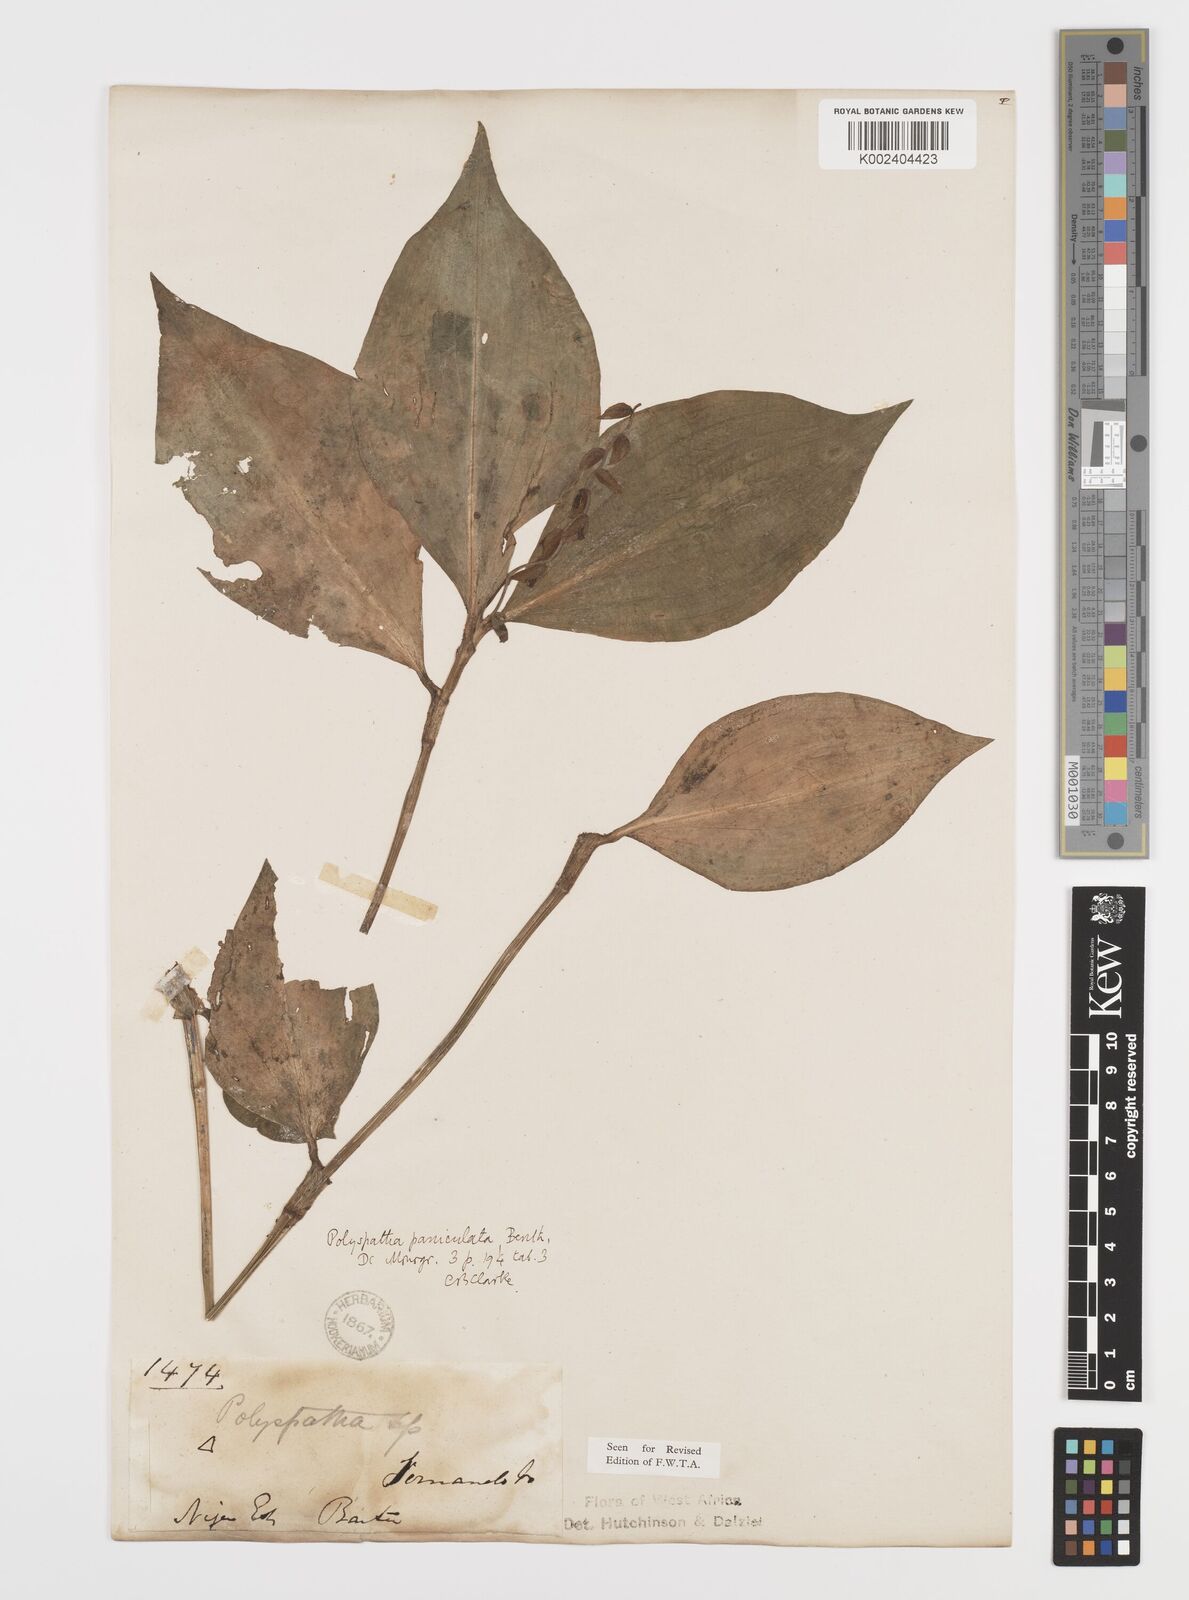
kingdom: Plantae
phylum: Tracheophyta
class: Liliopsida
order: Commelinales
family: Commelinaceae
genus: Polyspatha
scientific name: Polyspatha paniculata
